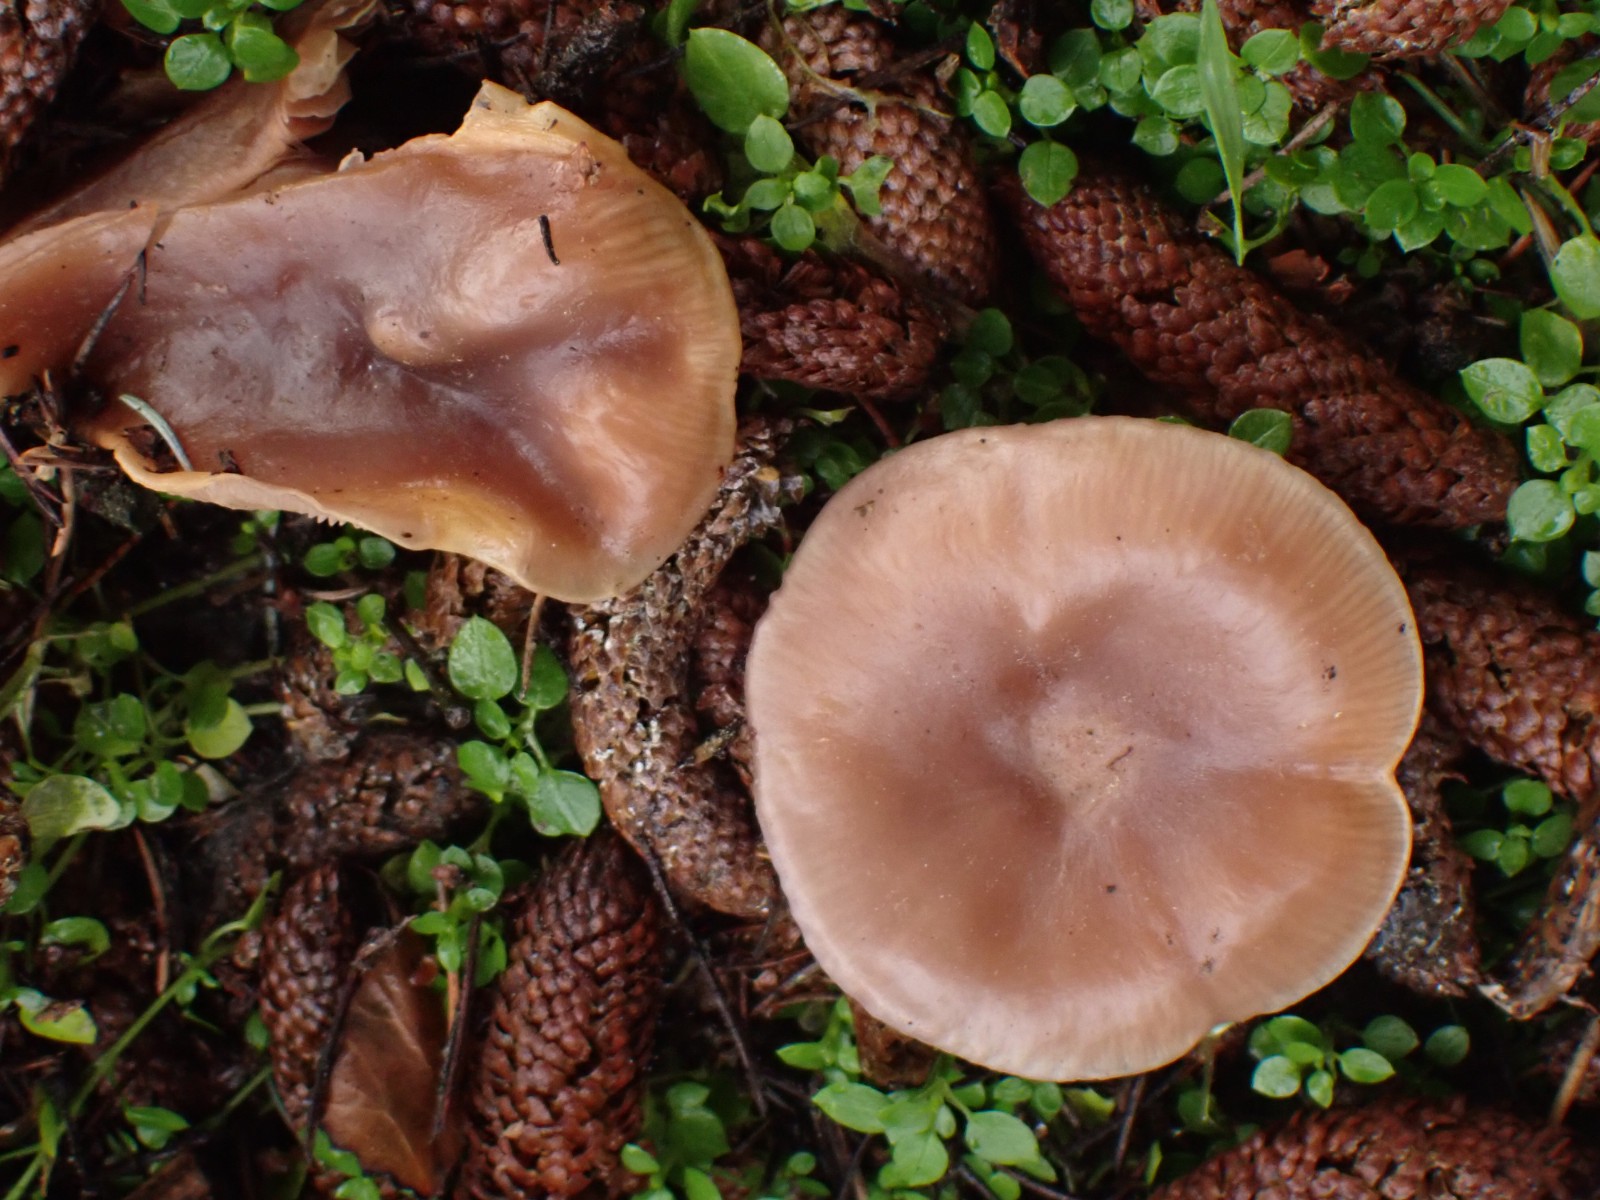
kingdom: Fungi
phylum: Basidiomycota
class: Agaricomycetes
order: Agaricales
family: Tricholomataceae
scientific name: Tricholomataceae
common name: ridderhatfamilien
